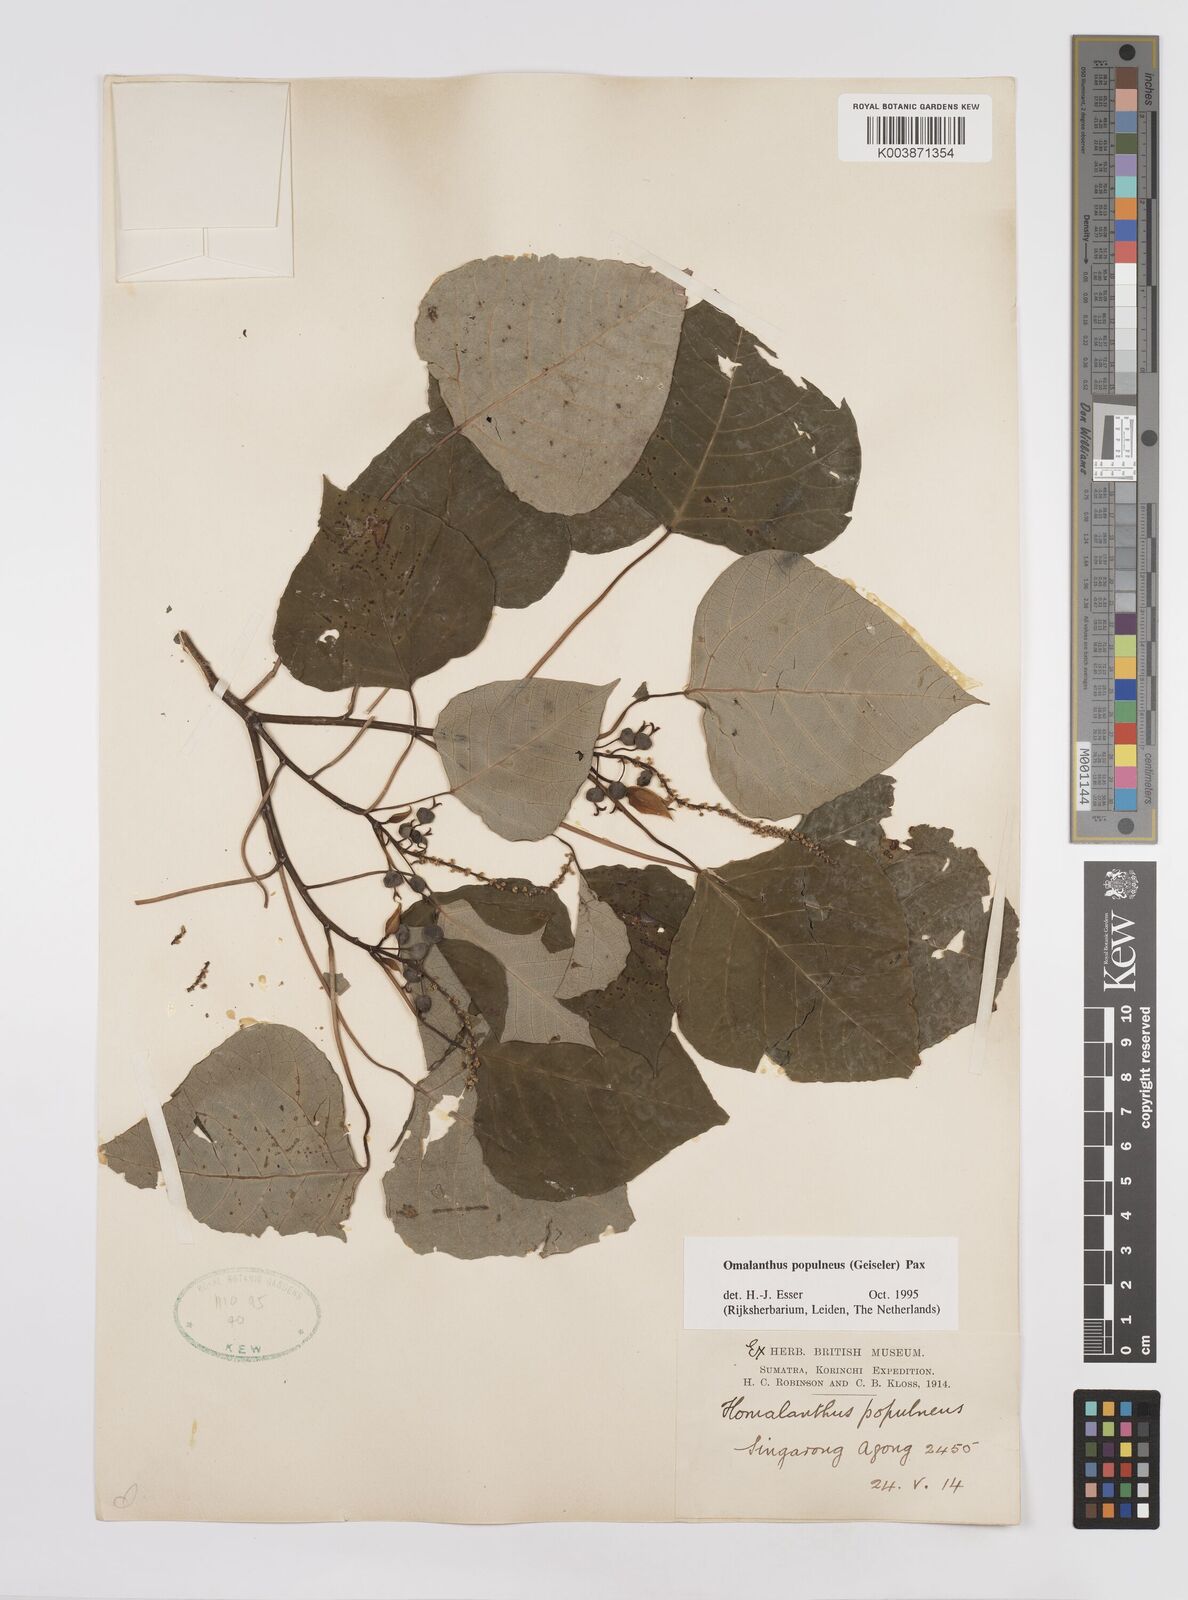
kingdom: Plantae
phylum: Tracheophyta
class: Magnoliopsida
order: Malpighiales
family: Euphorbiaceae
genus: Homalanthus
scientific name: Homalanthus populneus
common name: Spurge
